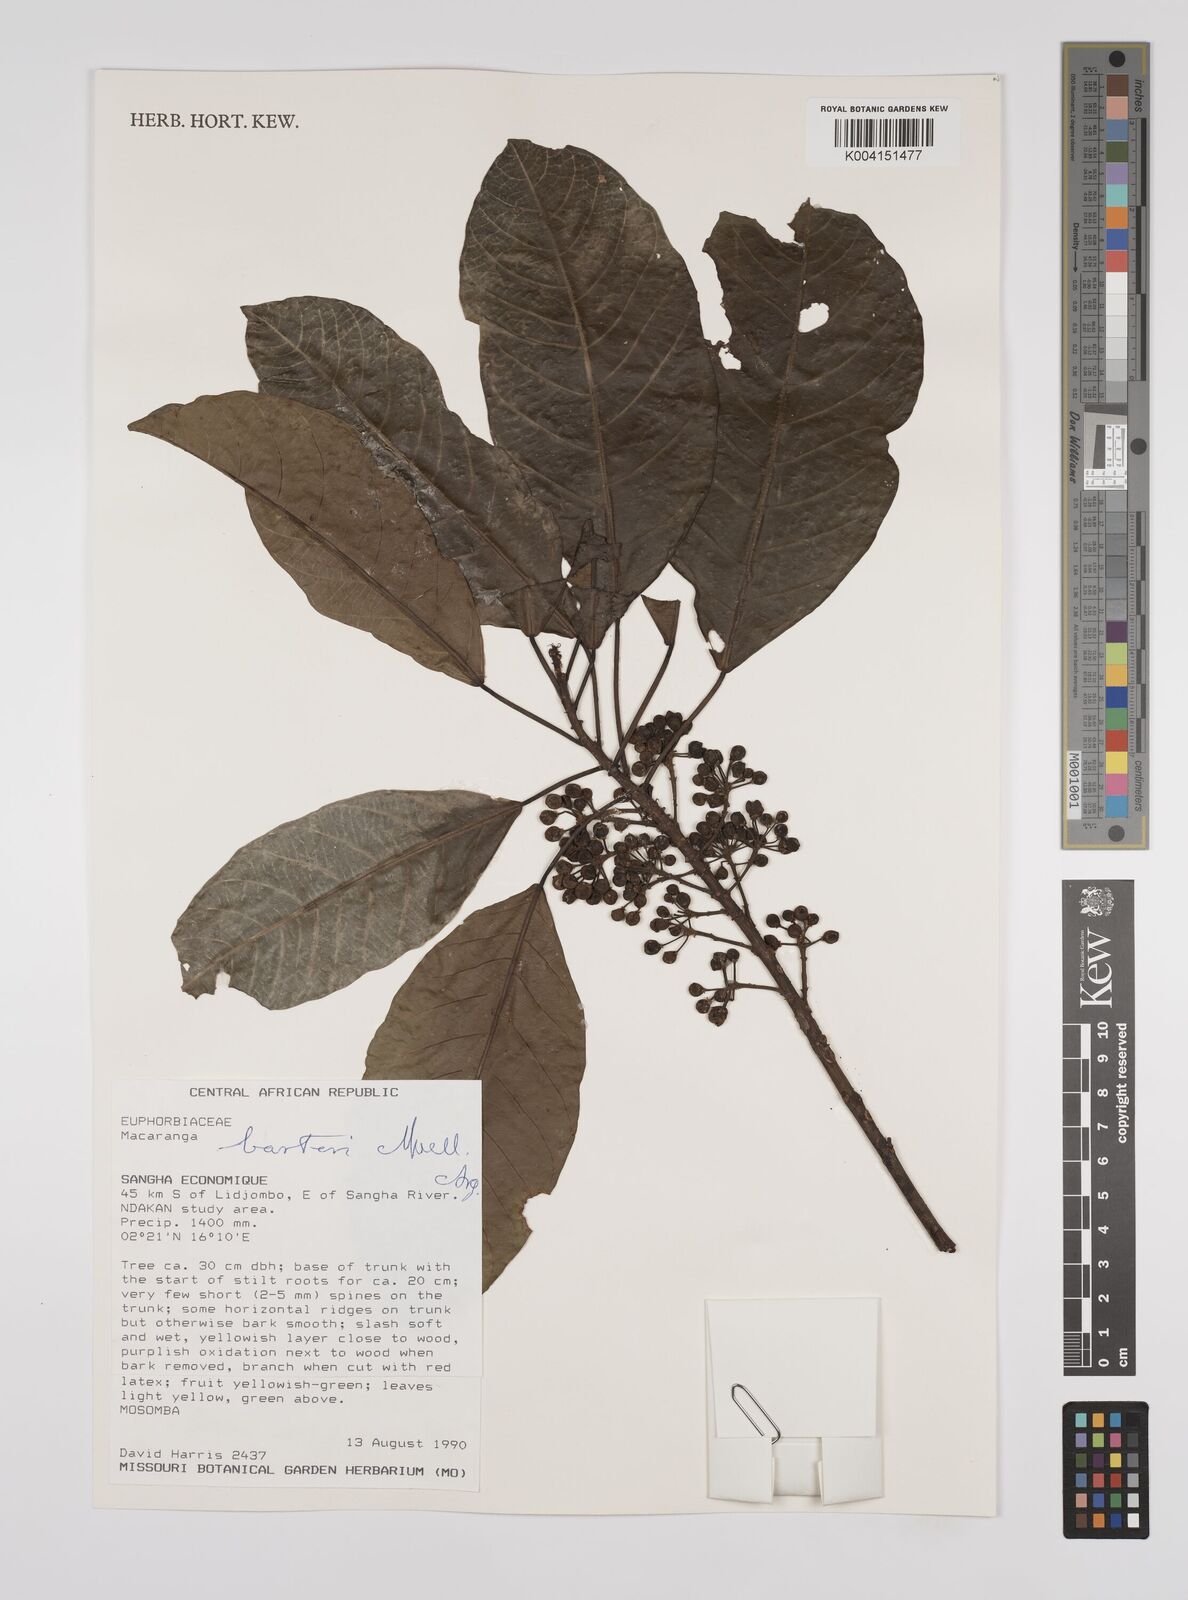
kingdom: Plantae
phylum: Tracheophyta
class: Magnoliopsida
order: Malpighiales
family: Euphorbiaceae
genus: Macaranga
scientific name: Macaranga barteri
